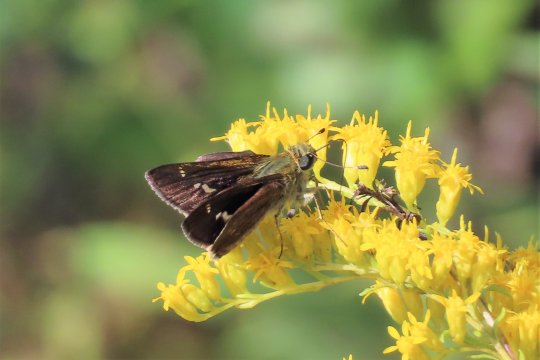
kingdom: Animalia
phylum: Arthropoda
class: Insecta
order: Lepidoptera
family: Hesperiidae
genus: Vernia
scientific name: Vernia verna
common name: Little Glassywing
